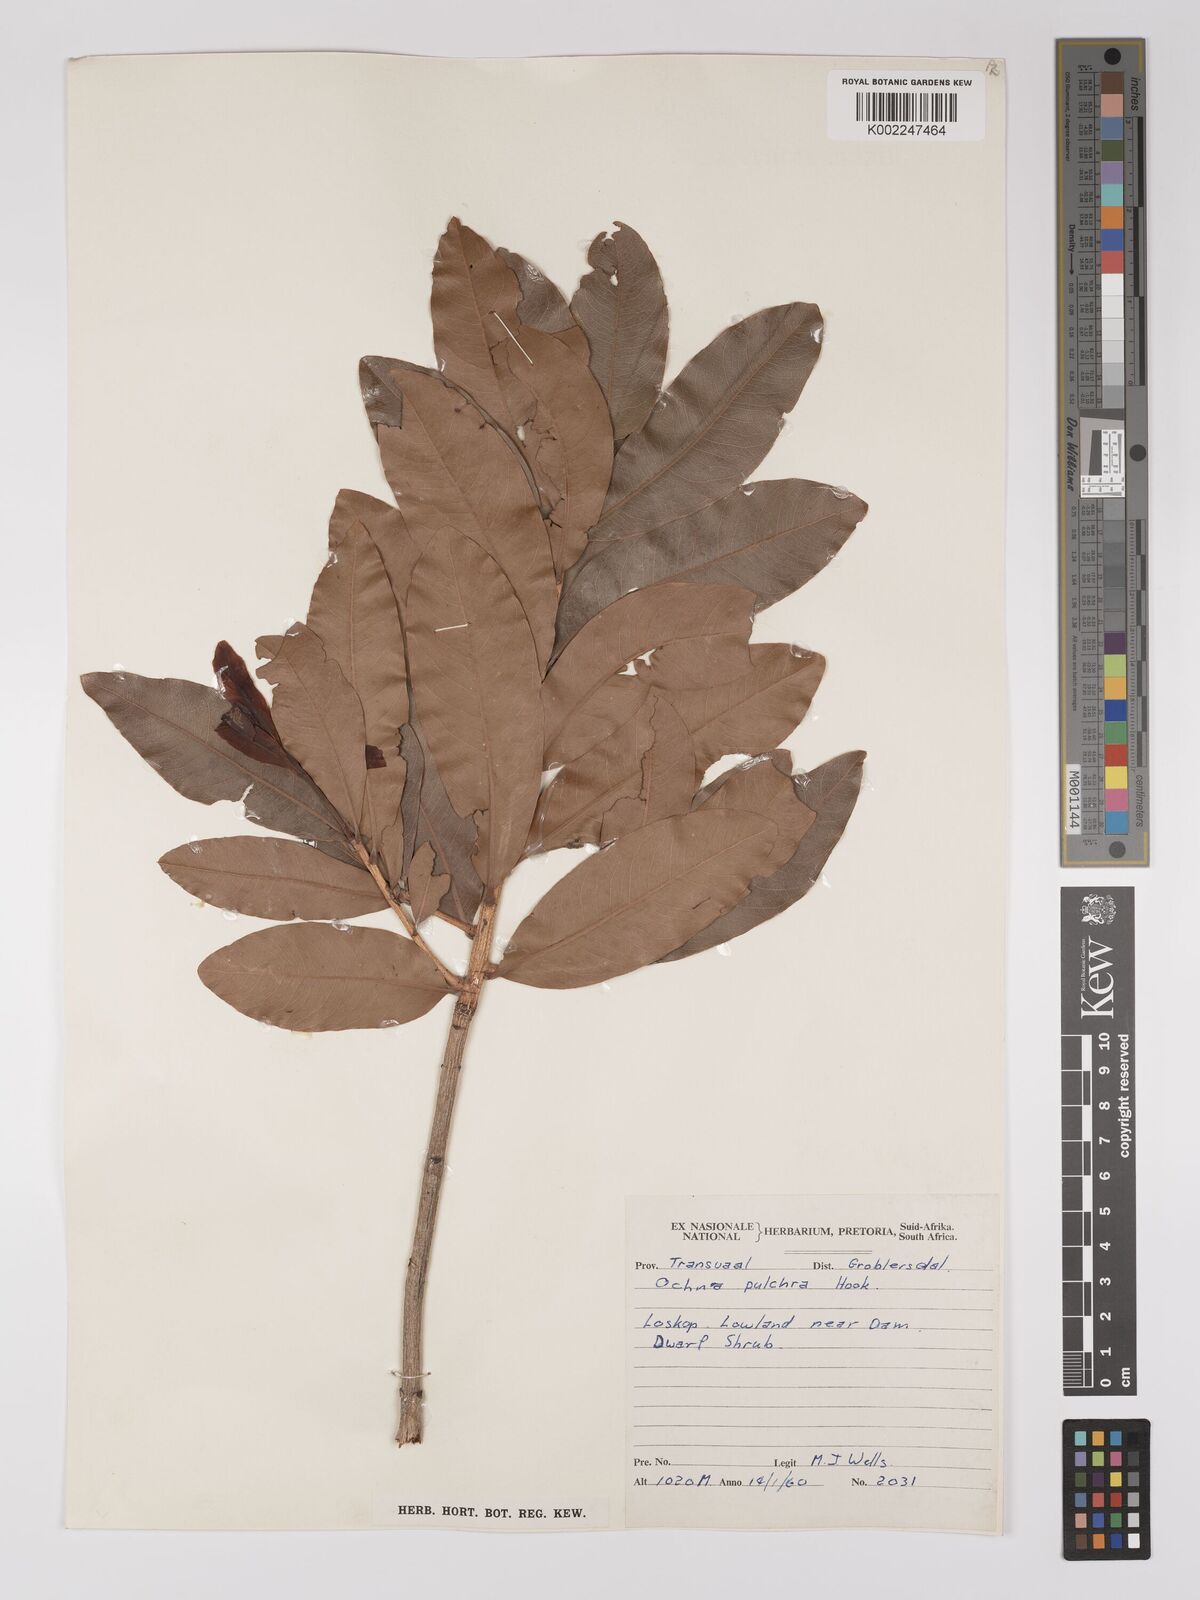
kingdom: Plantae
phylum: Tracheophyta
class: Magnoliopsida
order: Malpighiales
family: Ochnaceae
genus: Ochna
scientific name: Ochna pulchra
